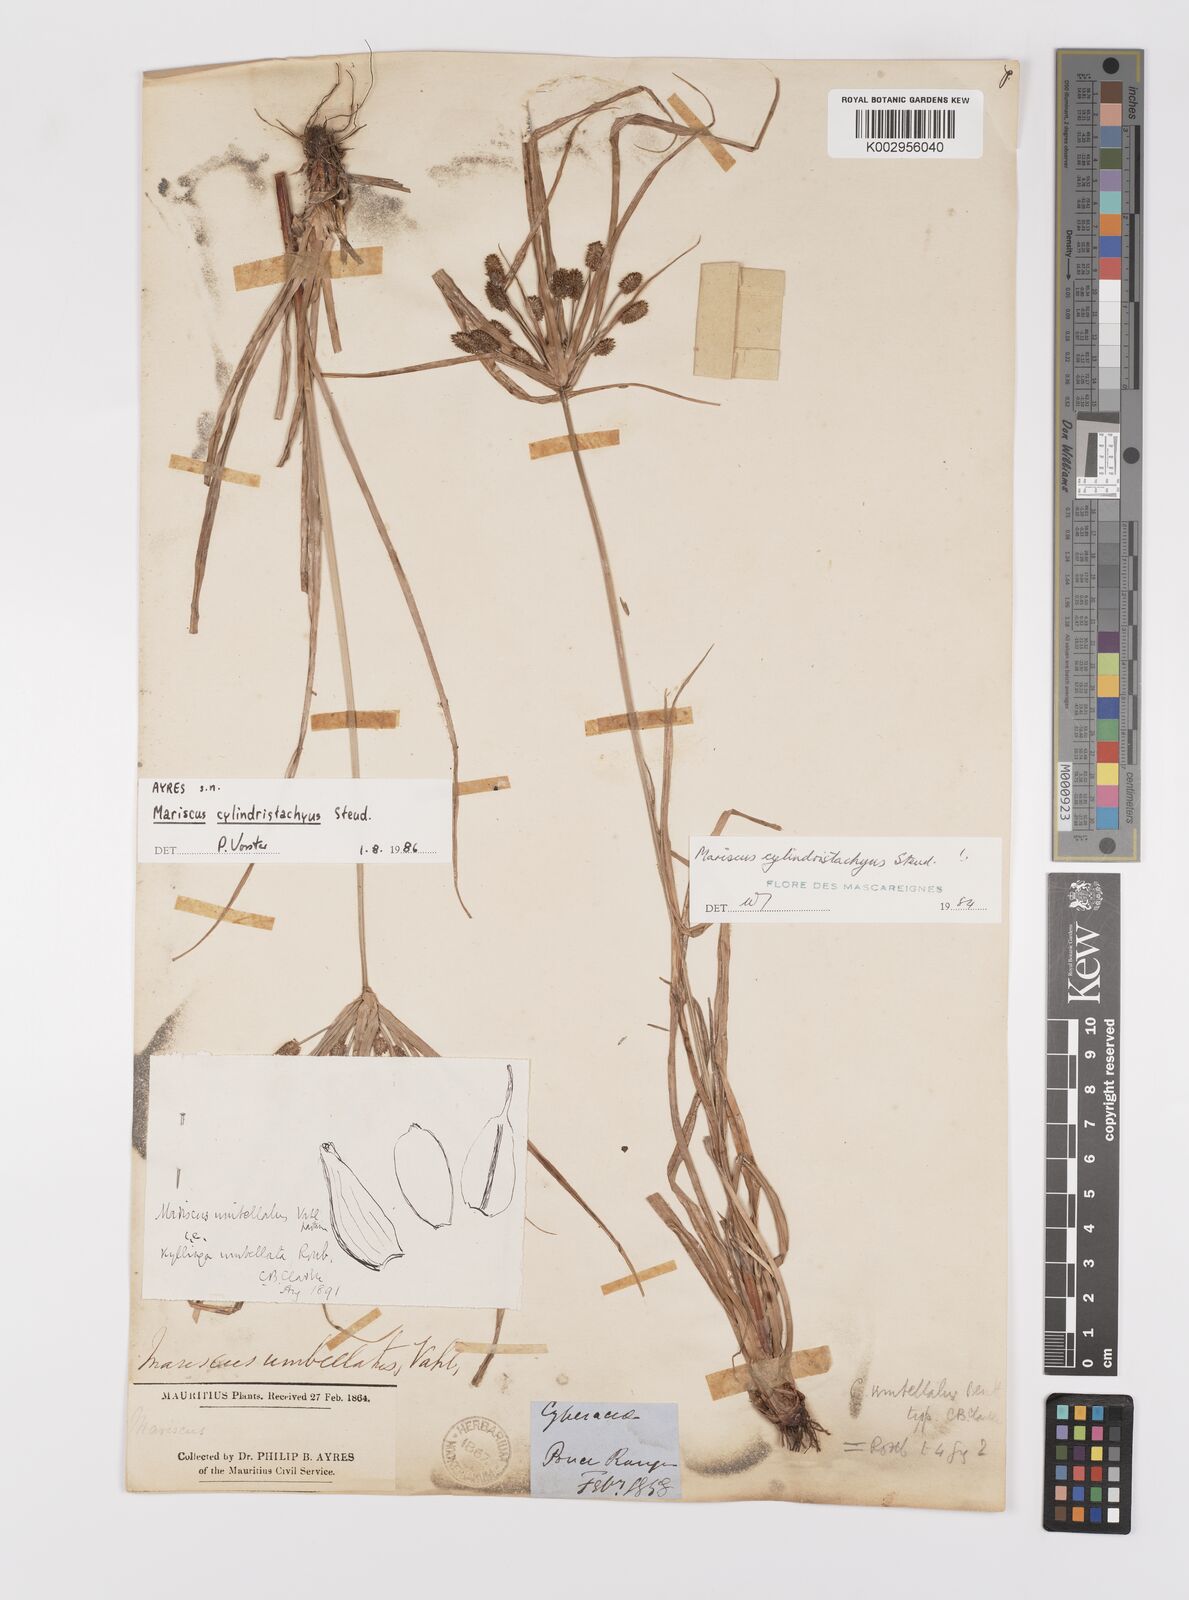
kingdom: Plantae
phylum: Tracheophyta
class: Liliopsida
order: Poales
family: Cyperaceae
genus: Cyperus
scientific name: Cyperus cyperoides
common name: Pacific island flat sedge
